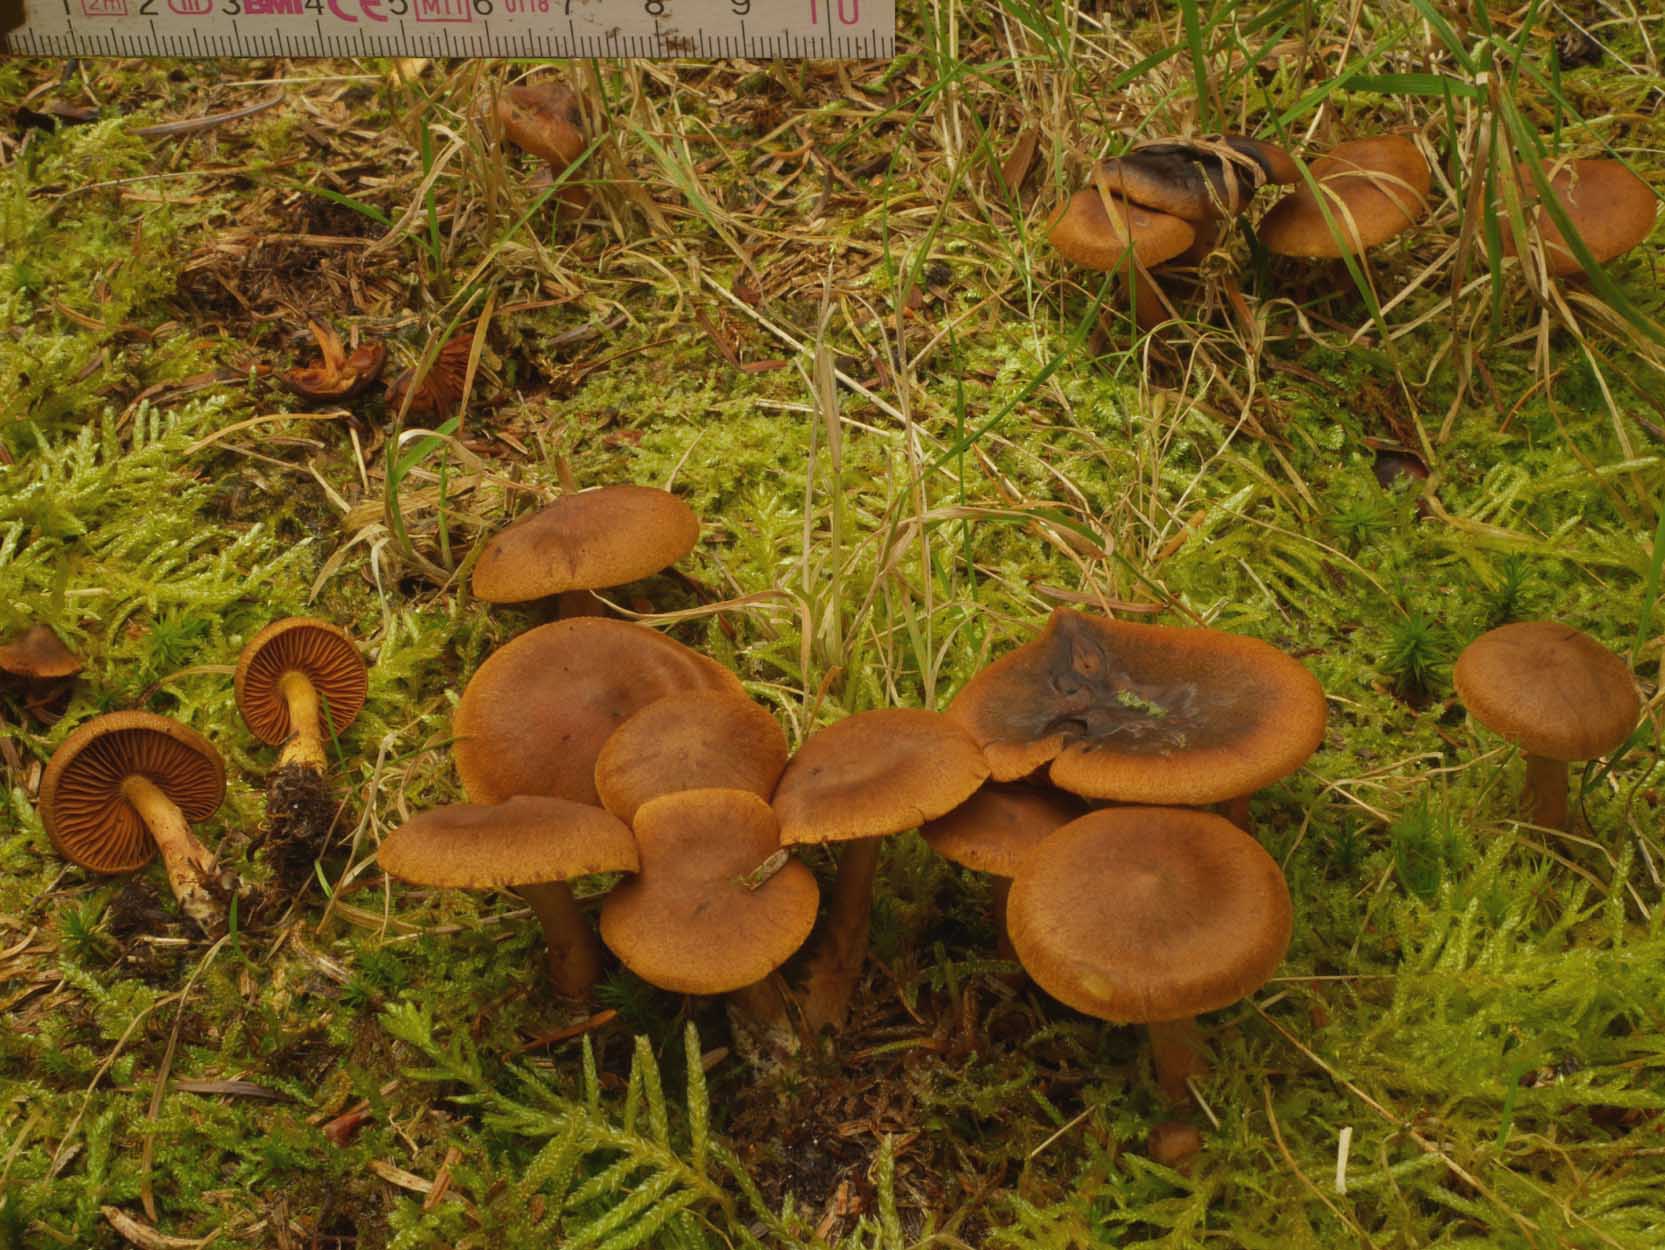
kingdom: Fungi
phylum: Basidiomycota
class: Agaricomycetes
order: Agaricales
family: Cortinariaceae
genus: Cortinarius
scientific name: Cortinarius cinnamomeus
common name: kanel-slørhat
